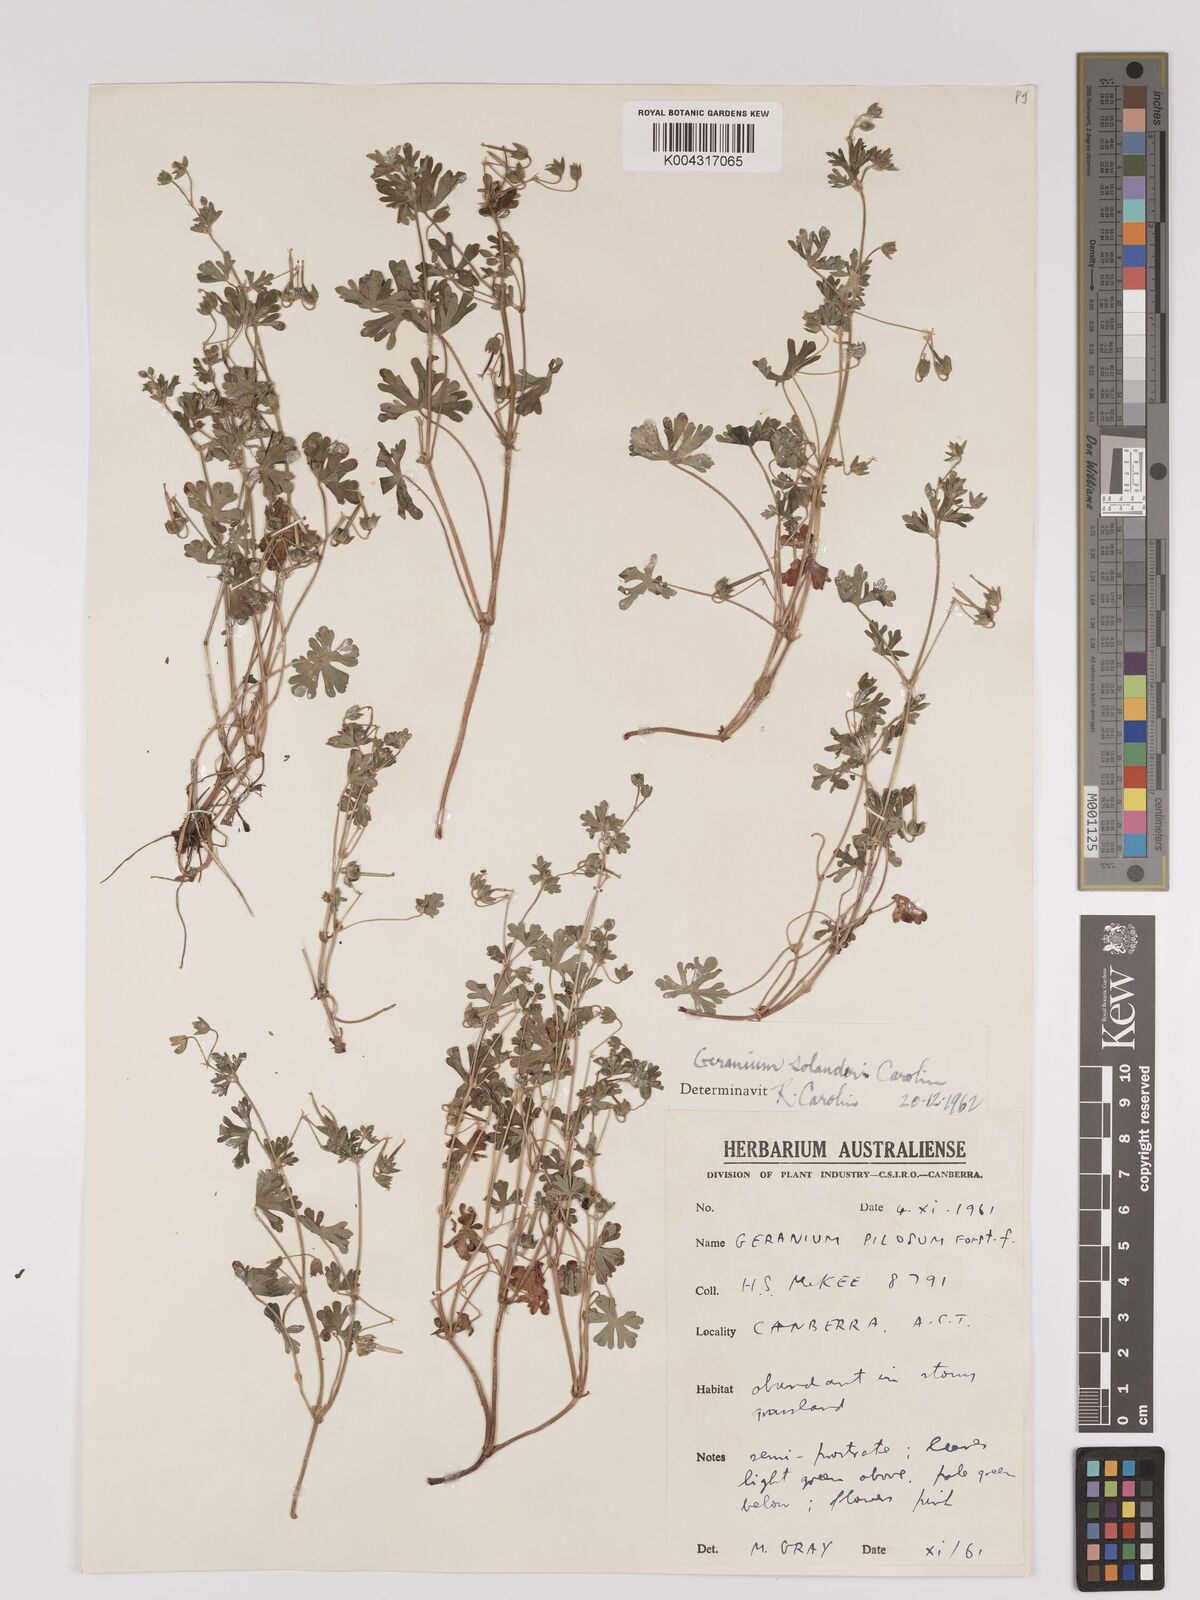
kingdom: Plantae
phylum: Tracheophyta
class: Magnoliopsida
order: Geraniales
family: Geraniaceae
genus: Geranium
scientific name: Geranium solanderi
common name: Solander's geranium
